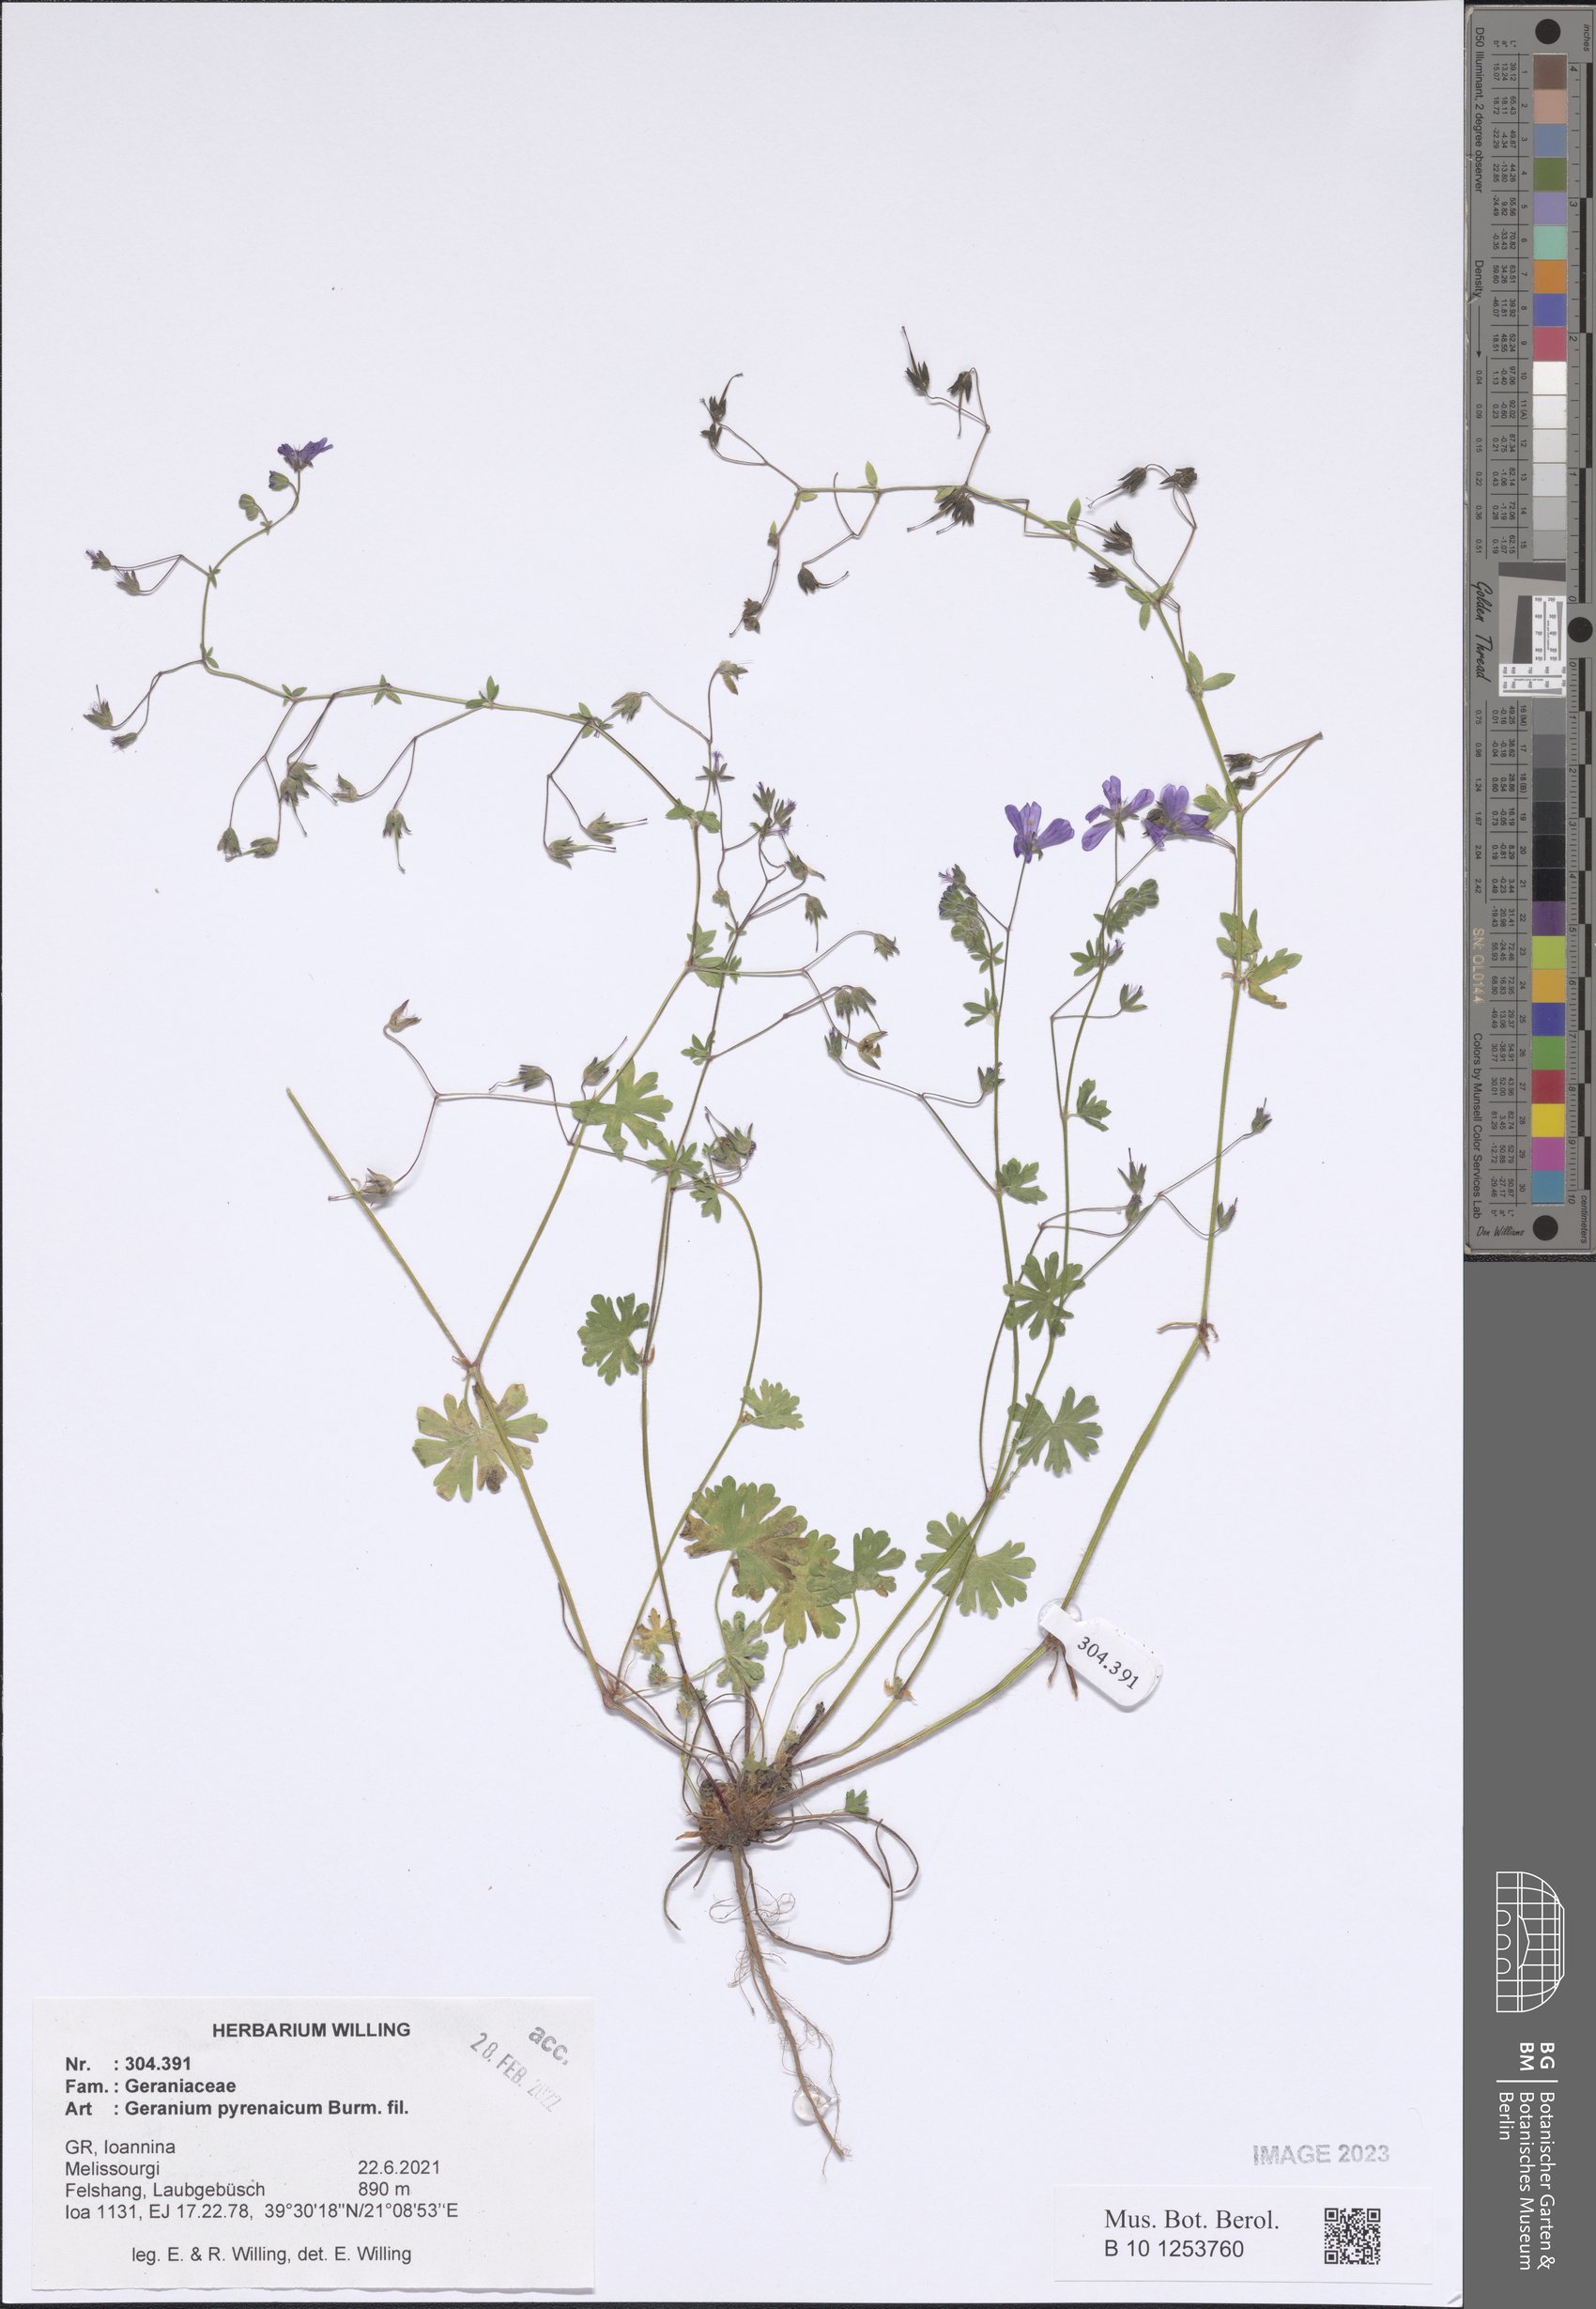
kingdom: Plantae
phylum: Tracheophyta
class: Magnoliopsida
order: Geraniales
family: Geraniaceae
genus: Geranium
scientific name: Geranium pyrenaicum
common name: Hedgerow crane's-bill
